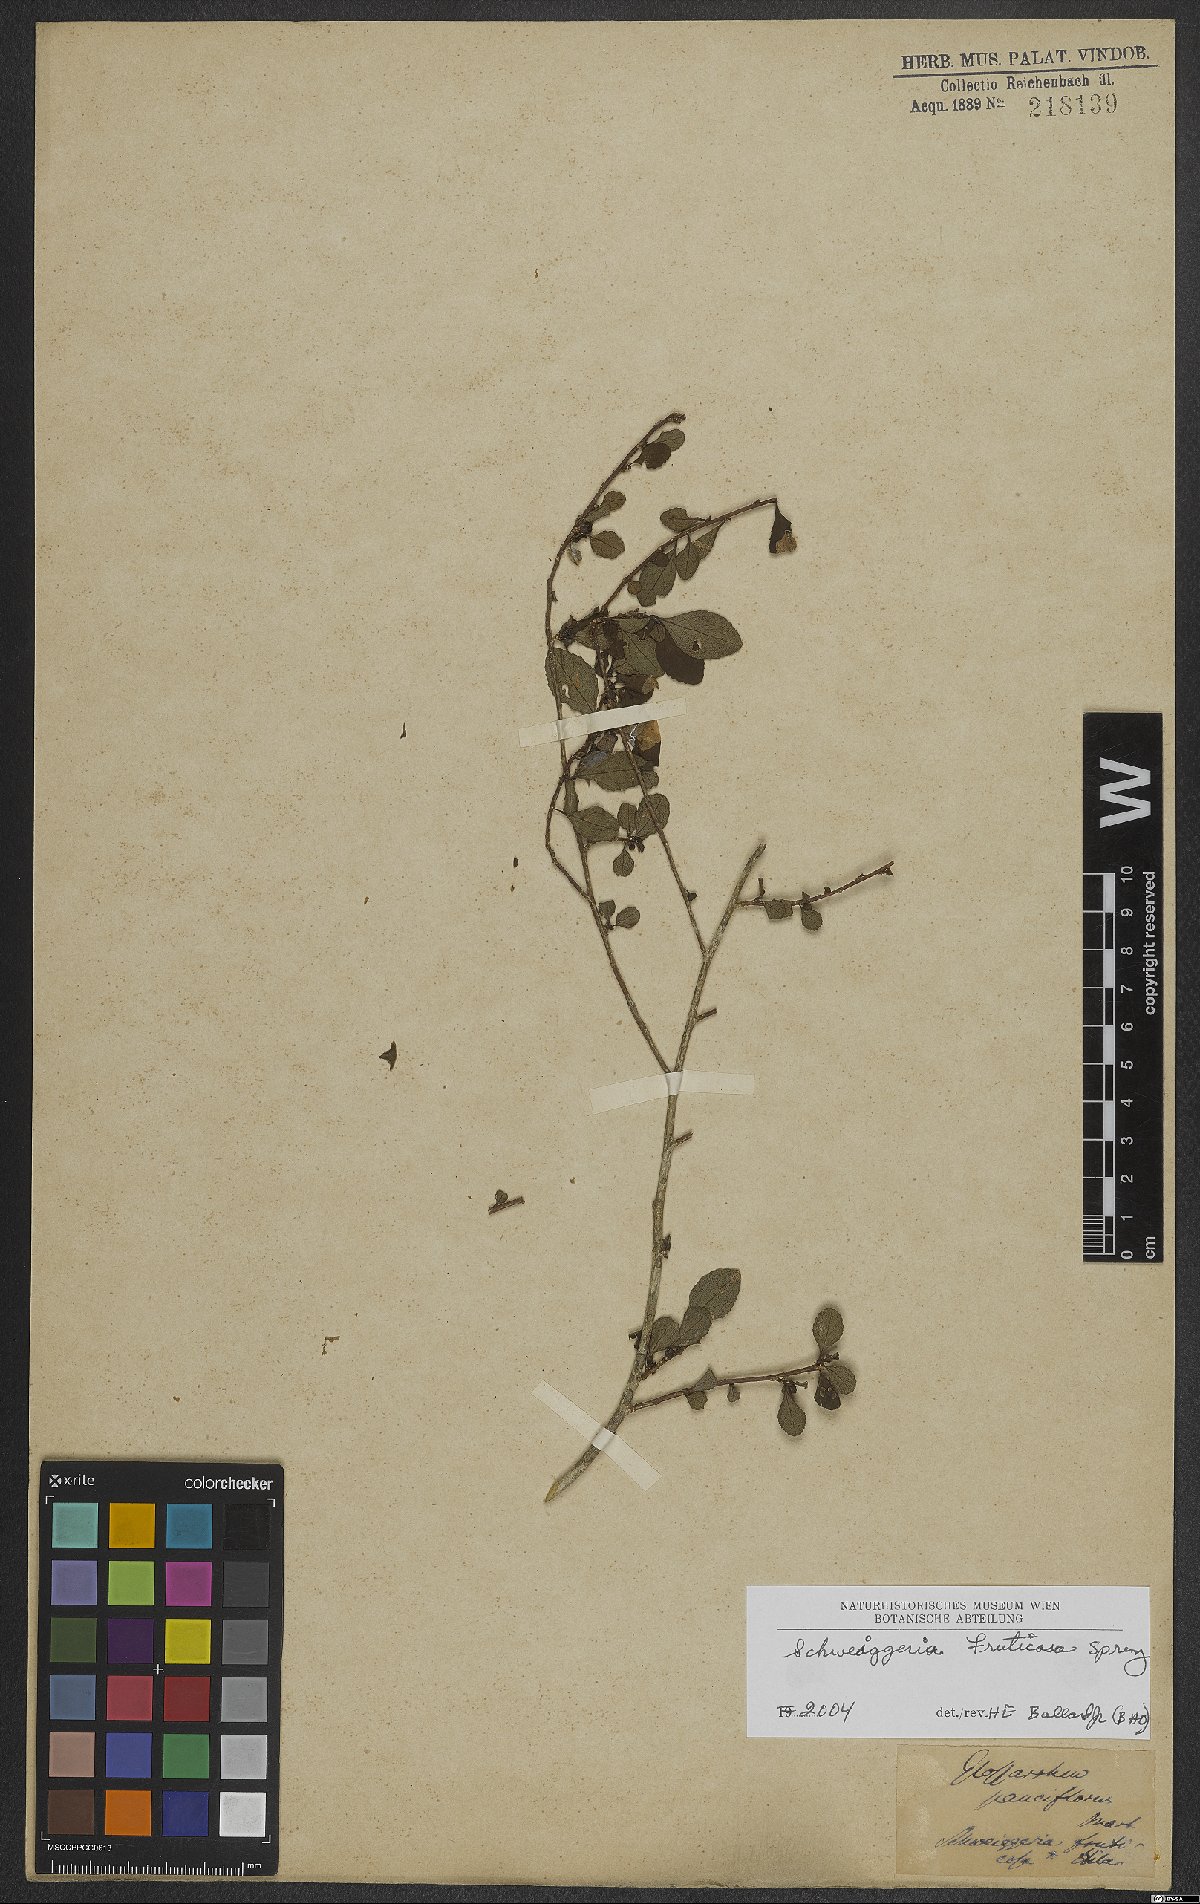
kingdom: Plantae
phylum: Tracheophyta
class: Magnoliopsida
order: Malpighiales
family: Violaceae
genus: Schweiggeria
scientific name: Schweiggeria fruticosa
